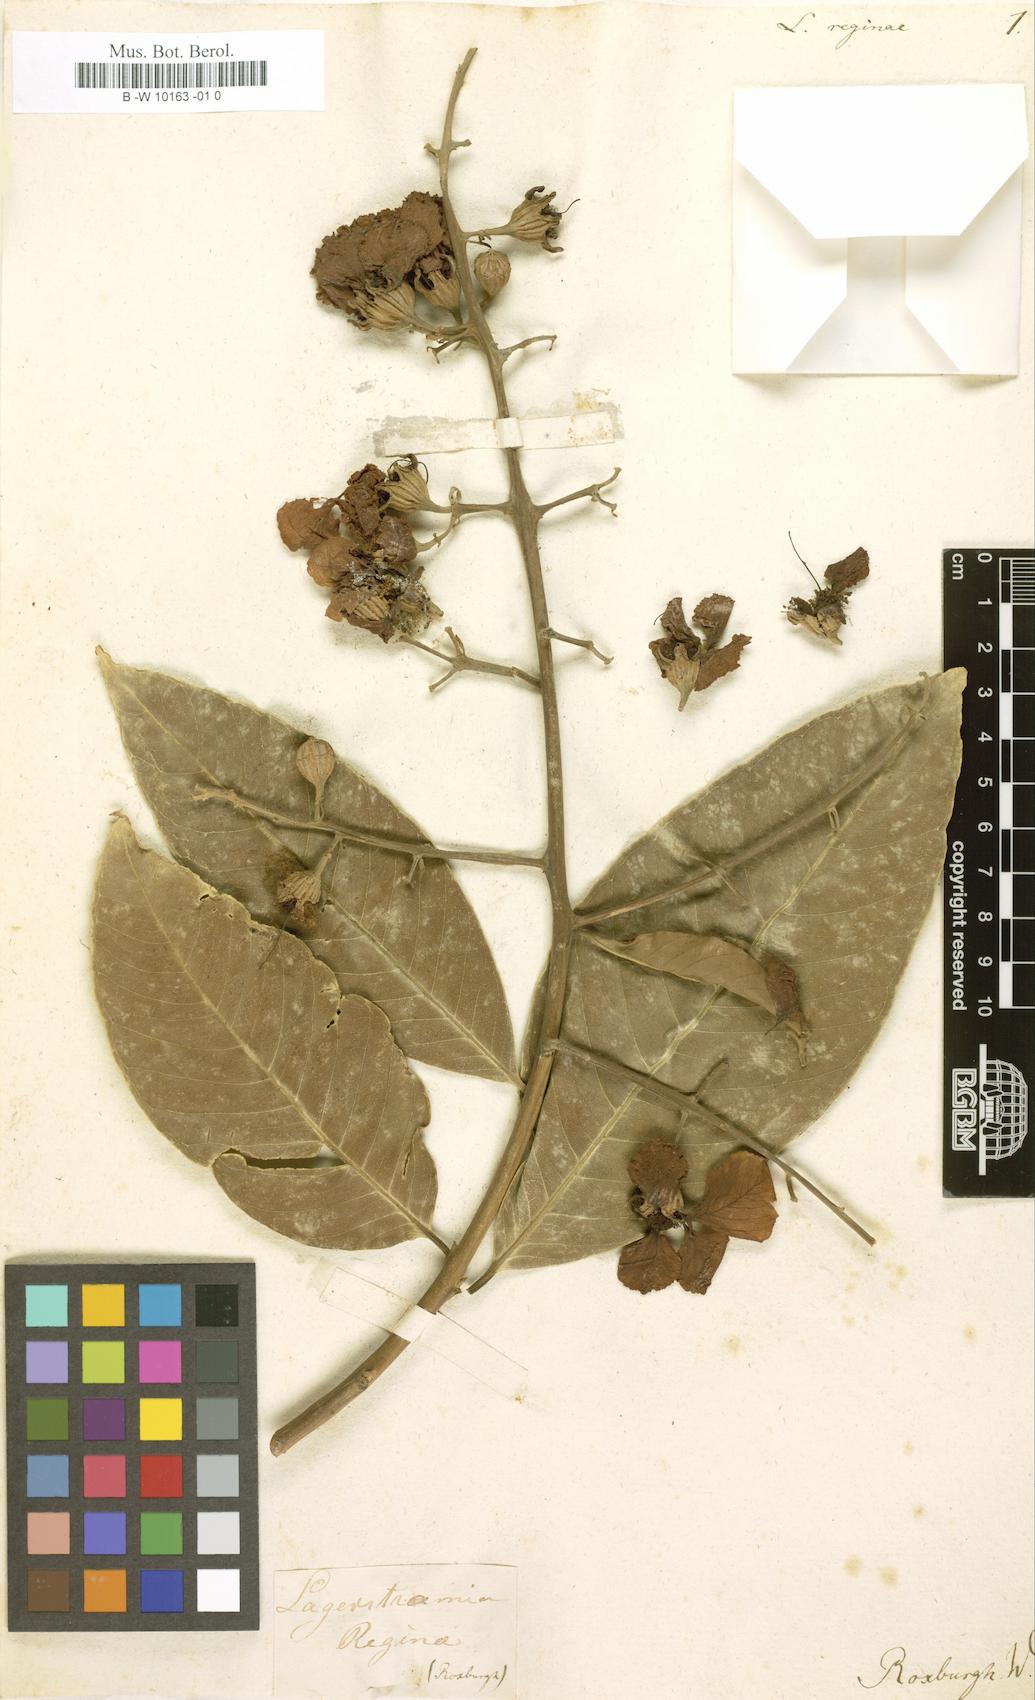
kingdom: Plantae
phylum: Tracheophyta
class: Magnoliopsida
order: Myrtales
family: Lythraceae
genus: Lagerstroemia
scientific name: Lagerstroemia speciosa
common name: Queen's crape-myrtle
